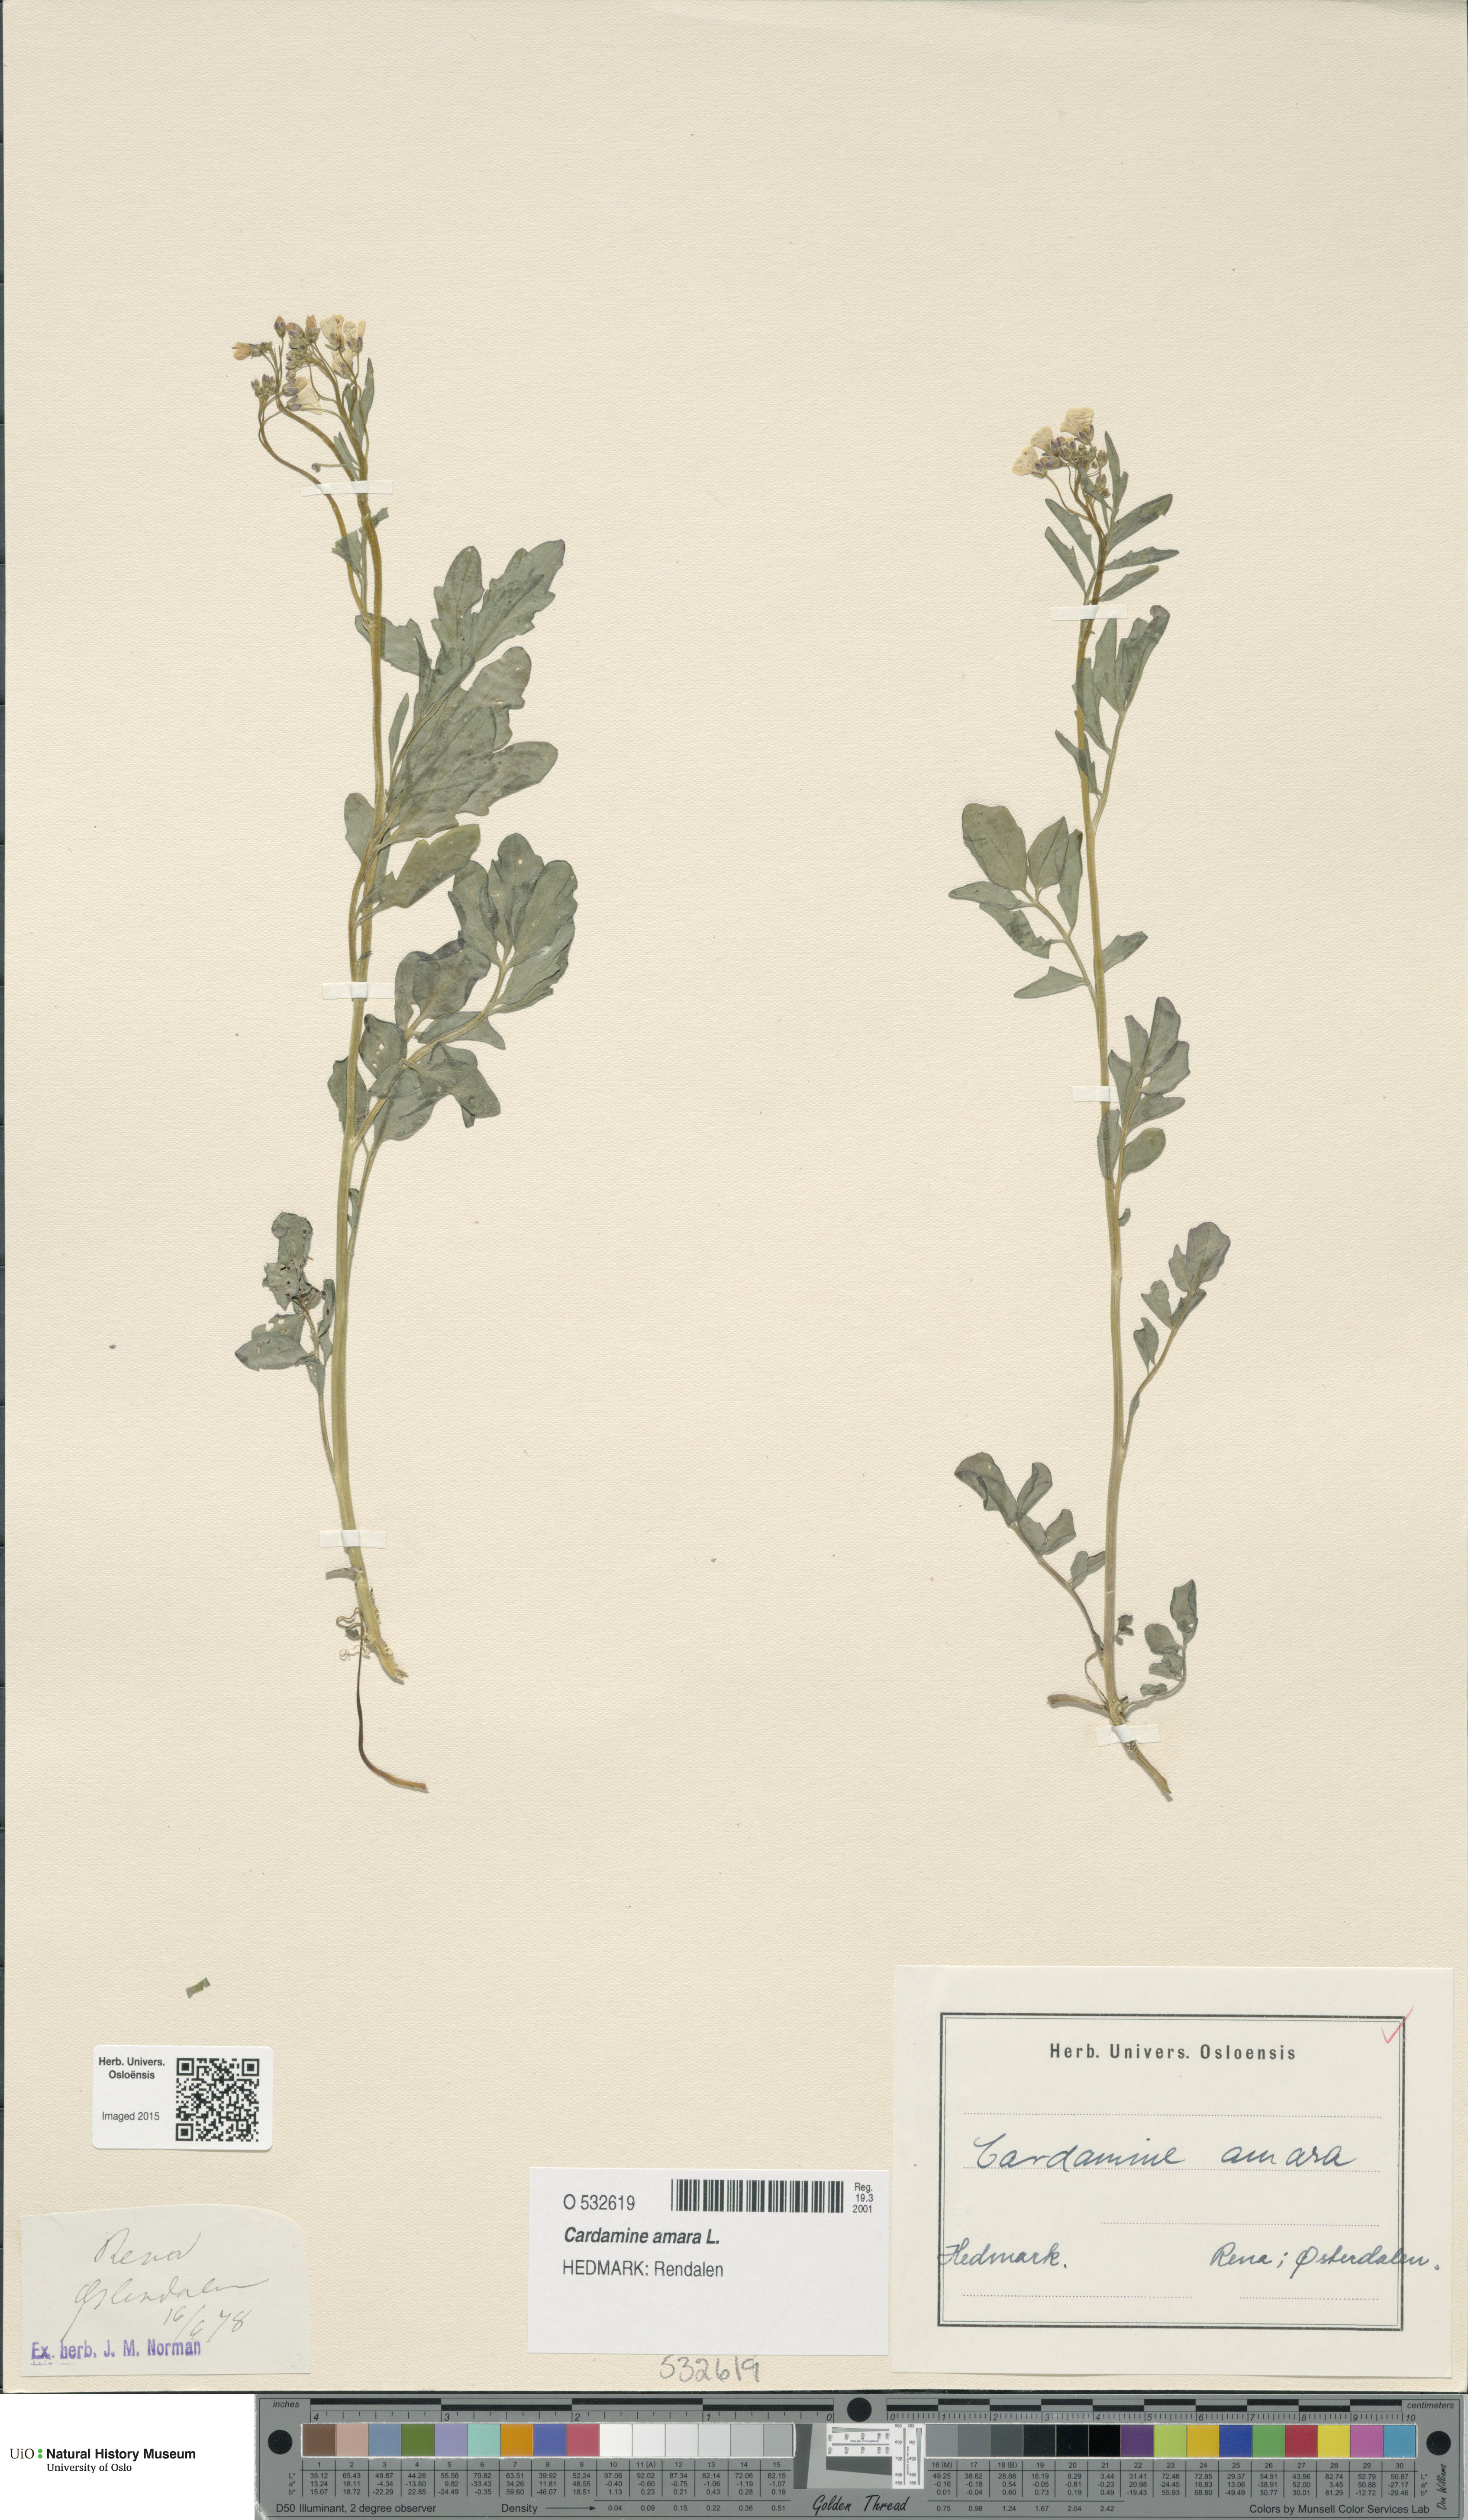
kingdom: Plantae
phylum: Tracheophyta
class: Magnoliopsida
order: Brassicales
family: Brassicaceae
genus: Cardamine
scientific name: Cardamine amara
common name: Large bitter-cress
